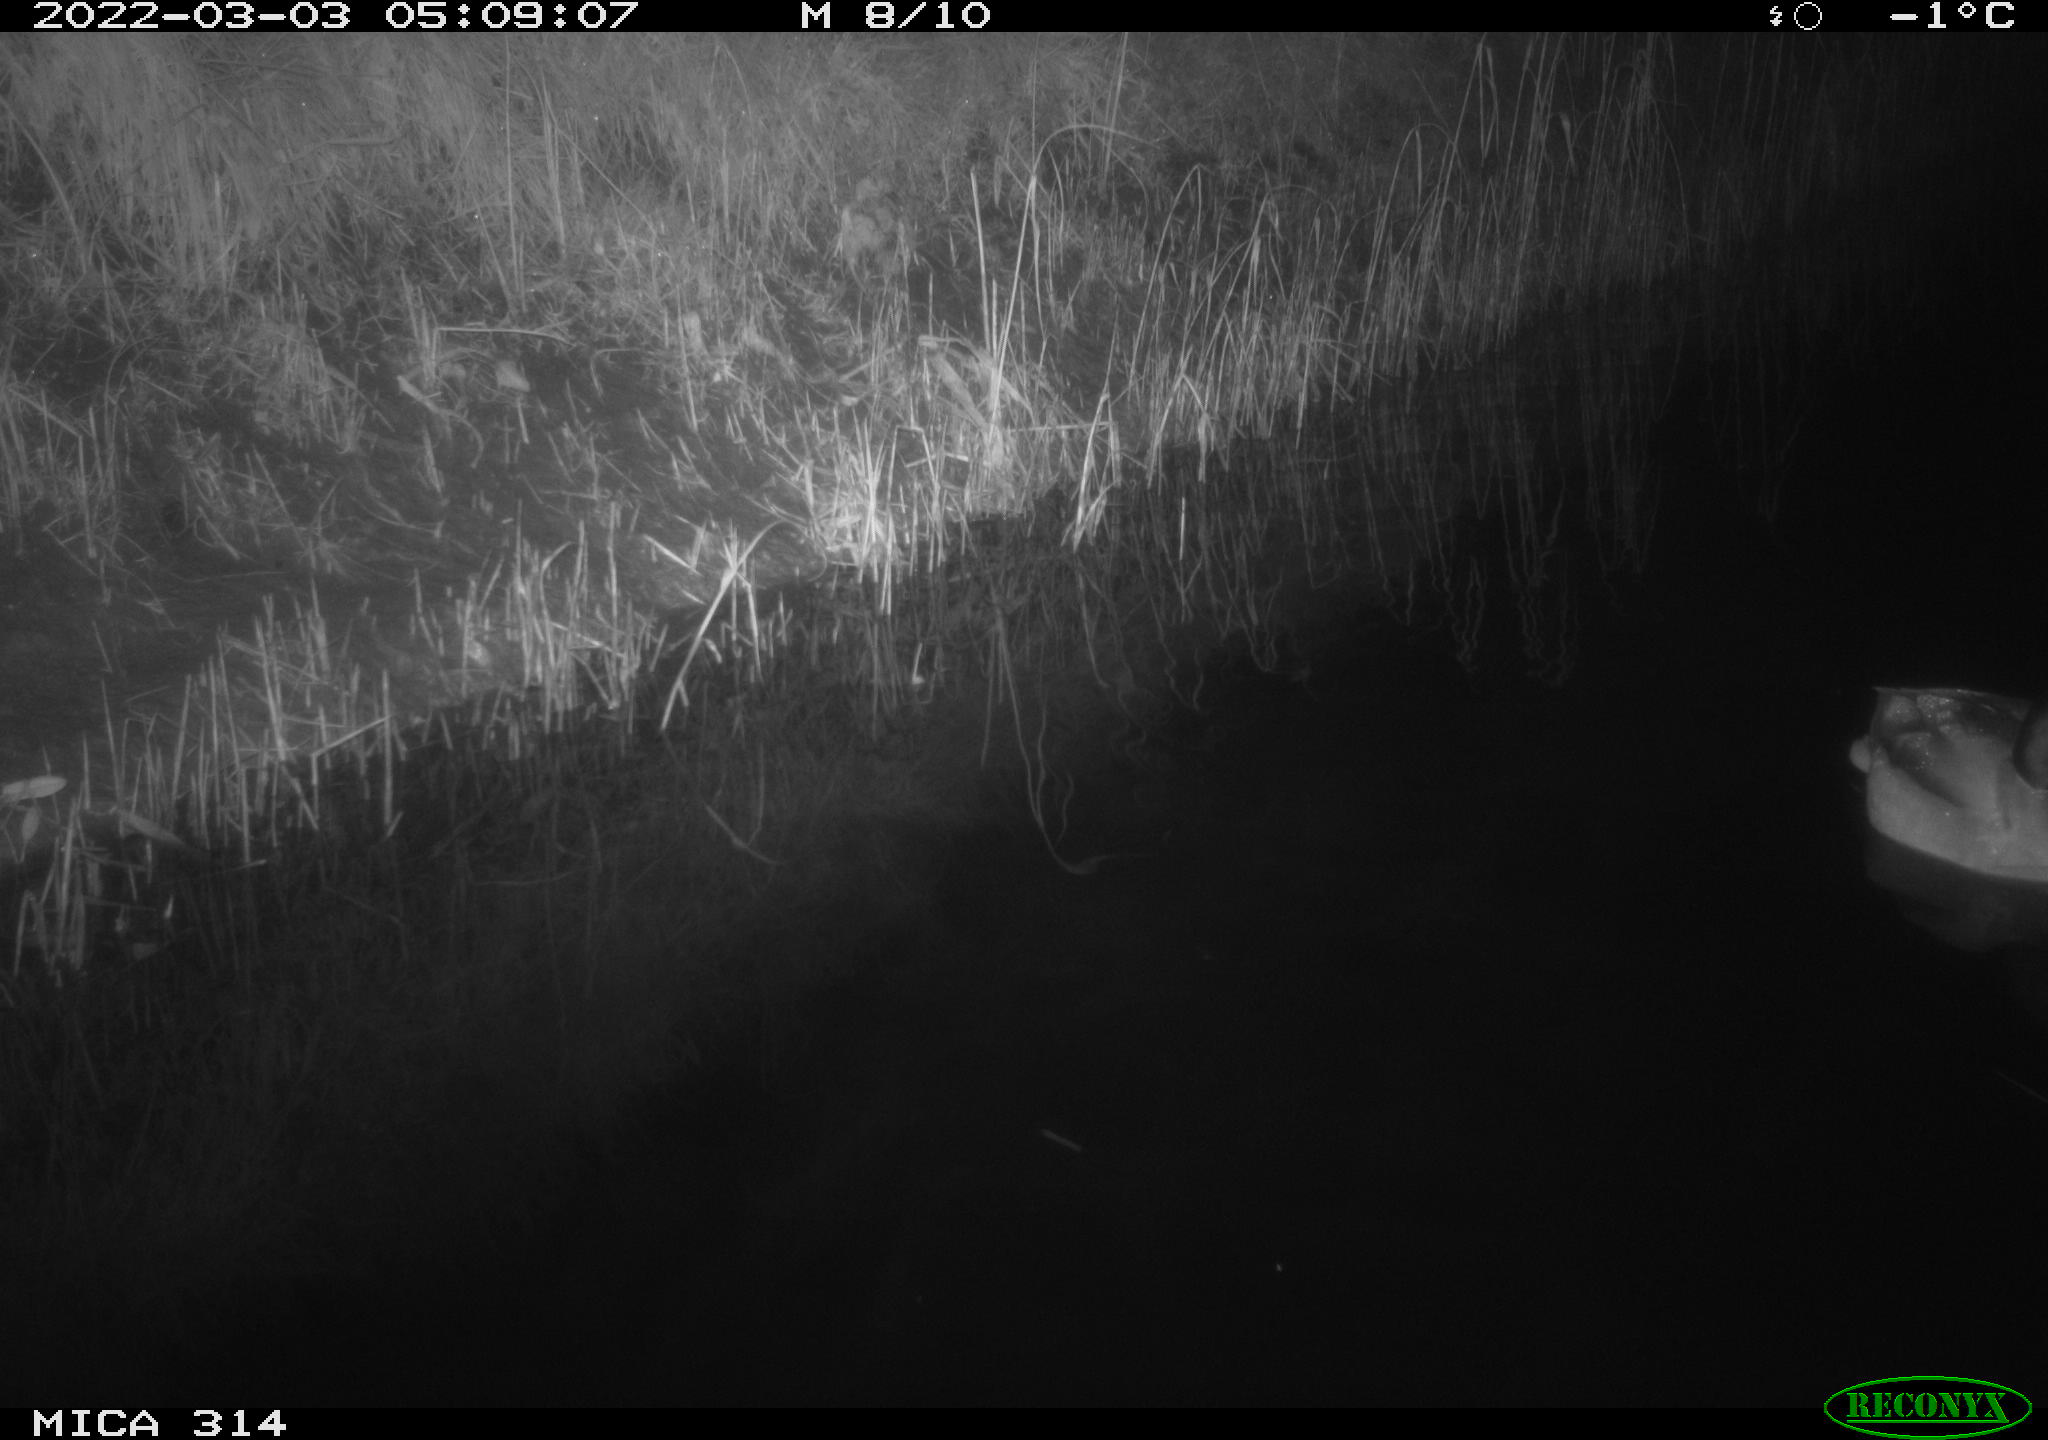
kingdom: Animalia
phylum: Chordata
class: Aves
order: Anseriformes
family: Anatidae
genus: Anas
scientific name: Anas platyrhynchos
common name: Mallard
